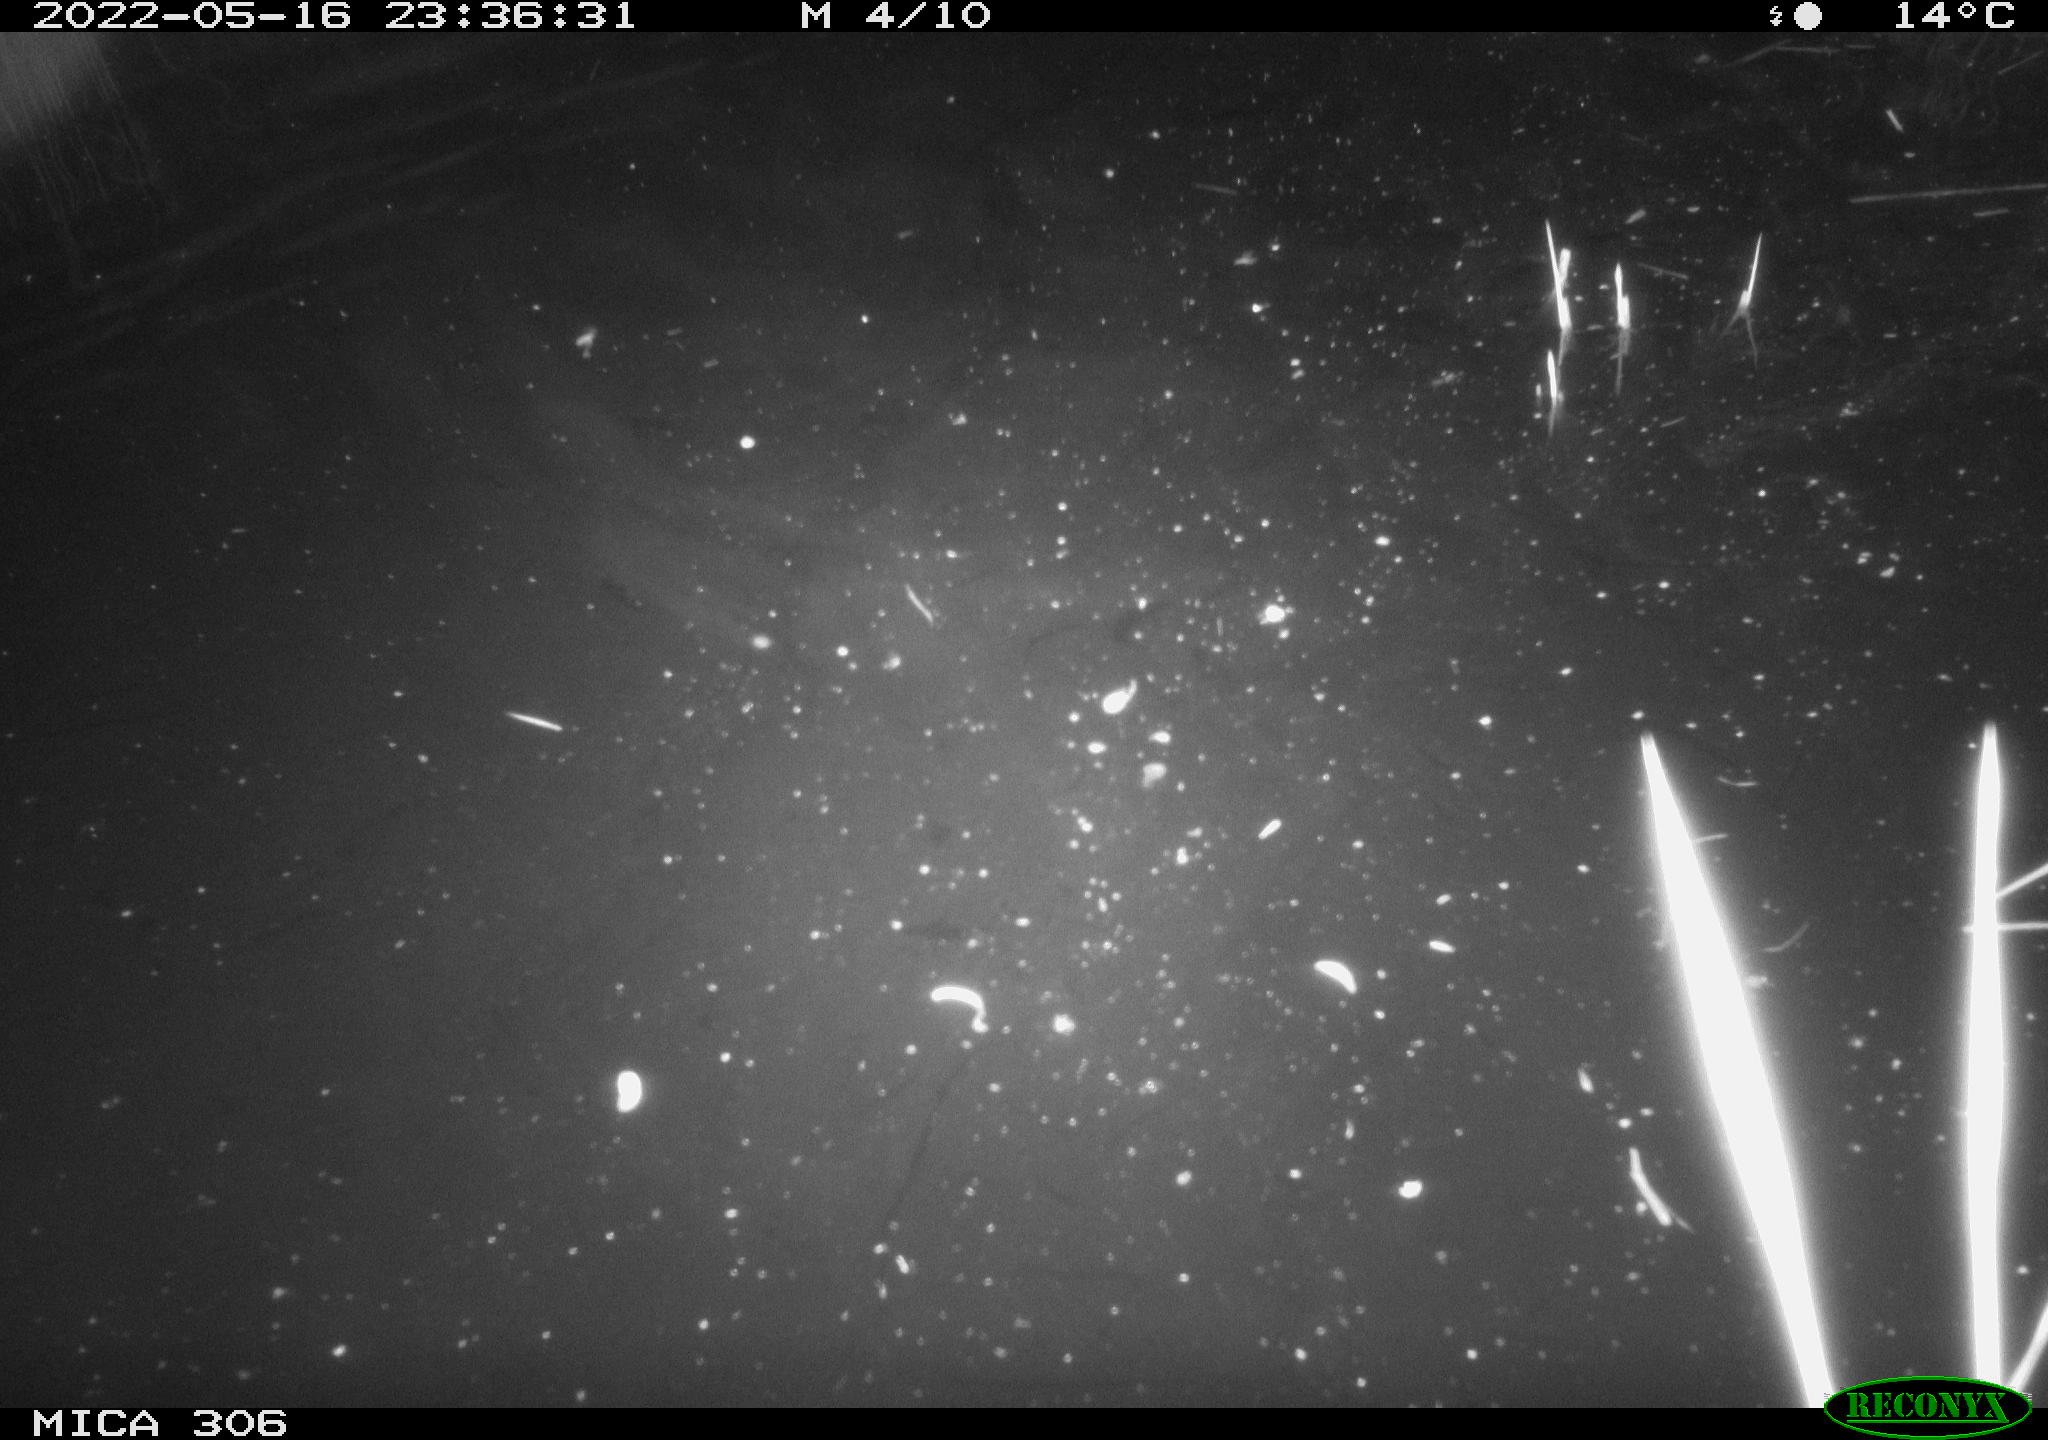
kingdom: Animalia
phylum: Chordata
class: Mammalia
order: Rodentia
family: Muridae
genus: Rattus
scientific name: Rattus norvegicus
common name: Brown rat
